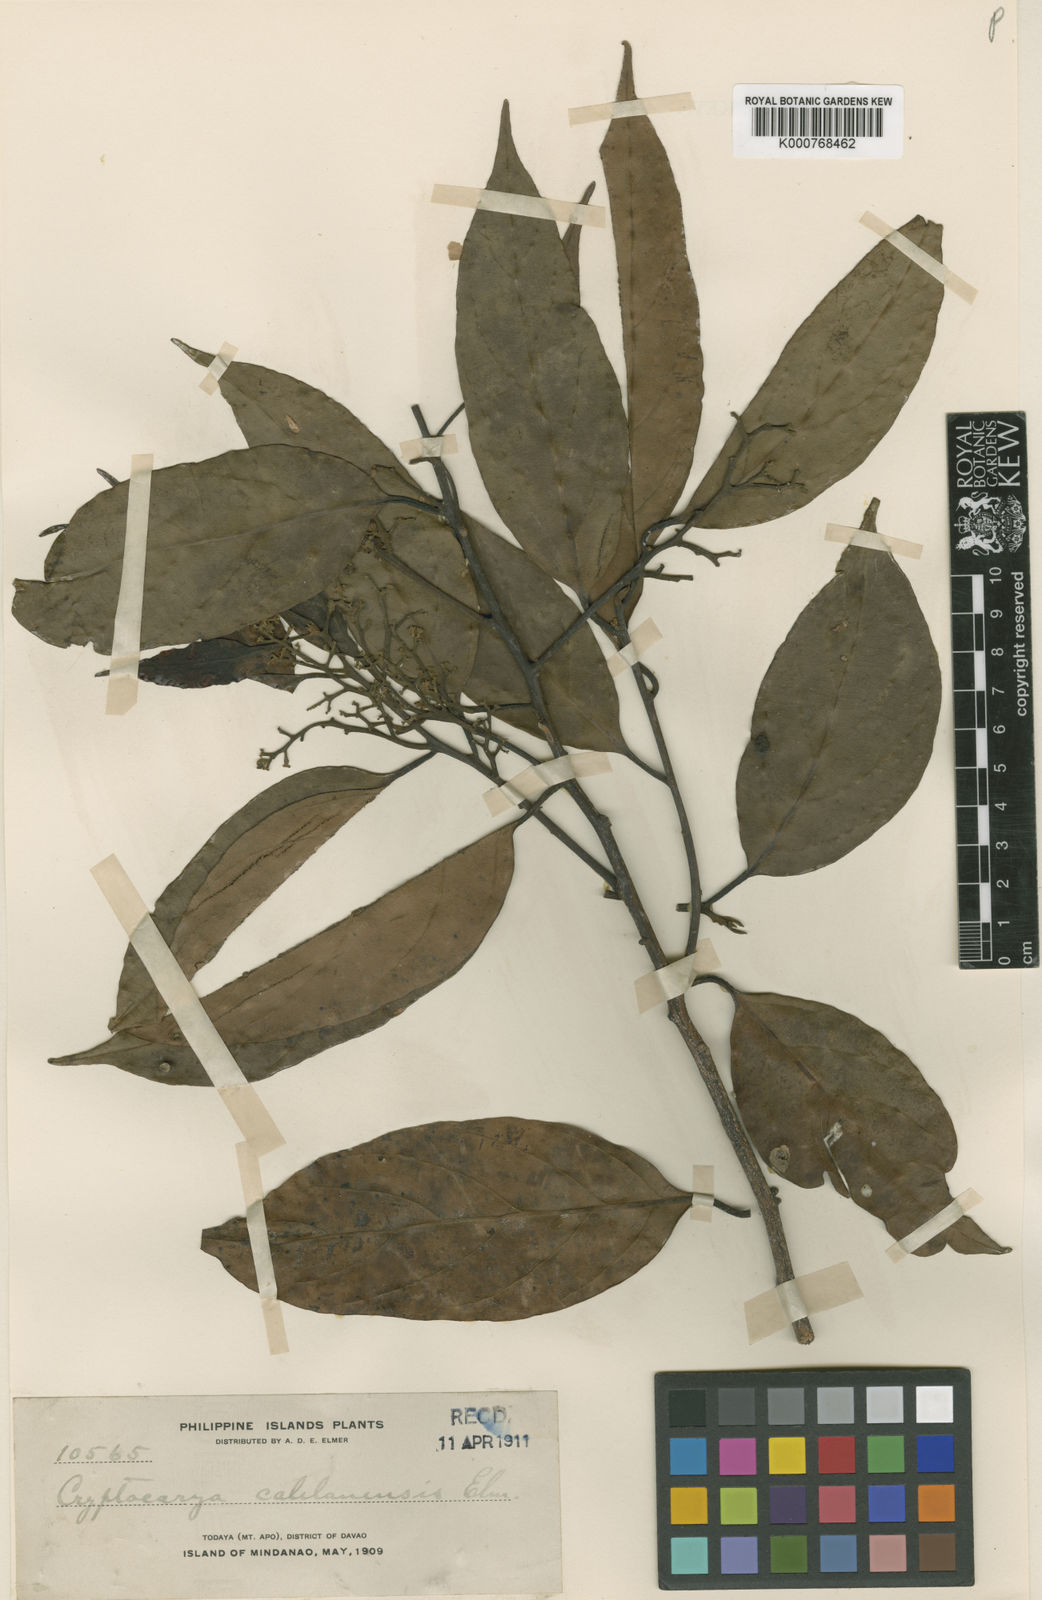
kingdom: Plantae
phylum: Tracheophyta
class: Magnoliopsida
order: Laurales
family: Lauraceae
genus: Cryptocarya
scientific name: Cryptocarya ampla
